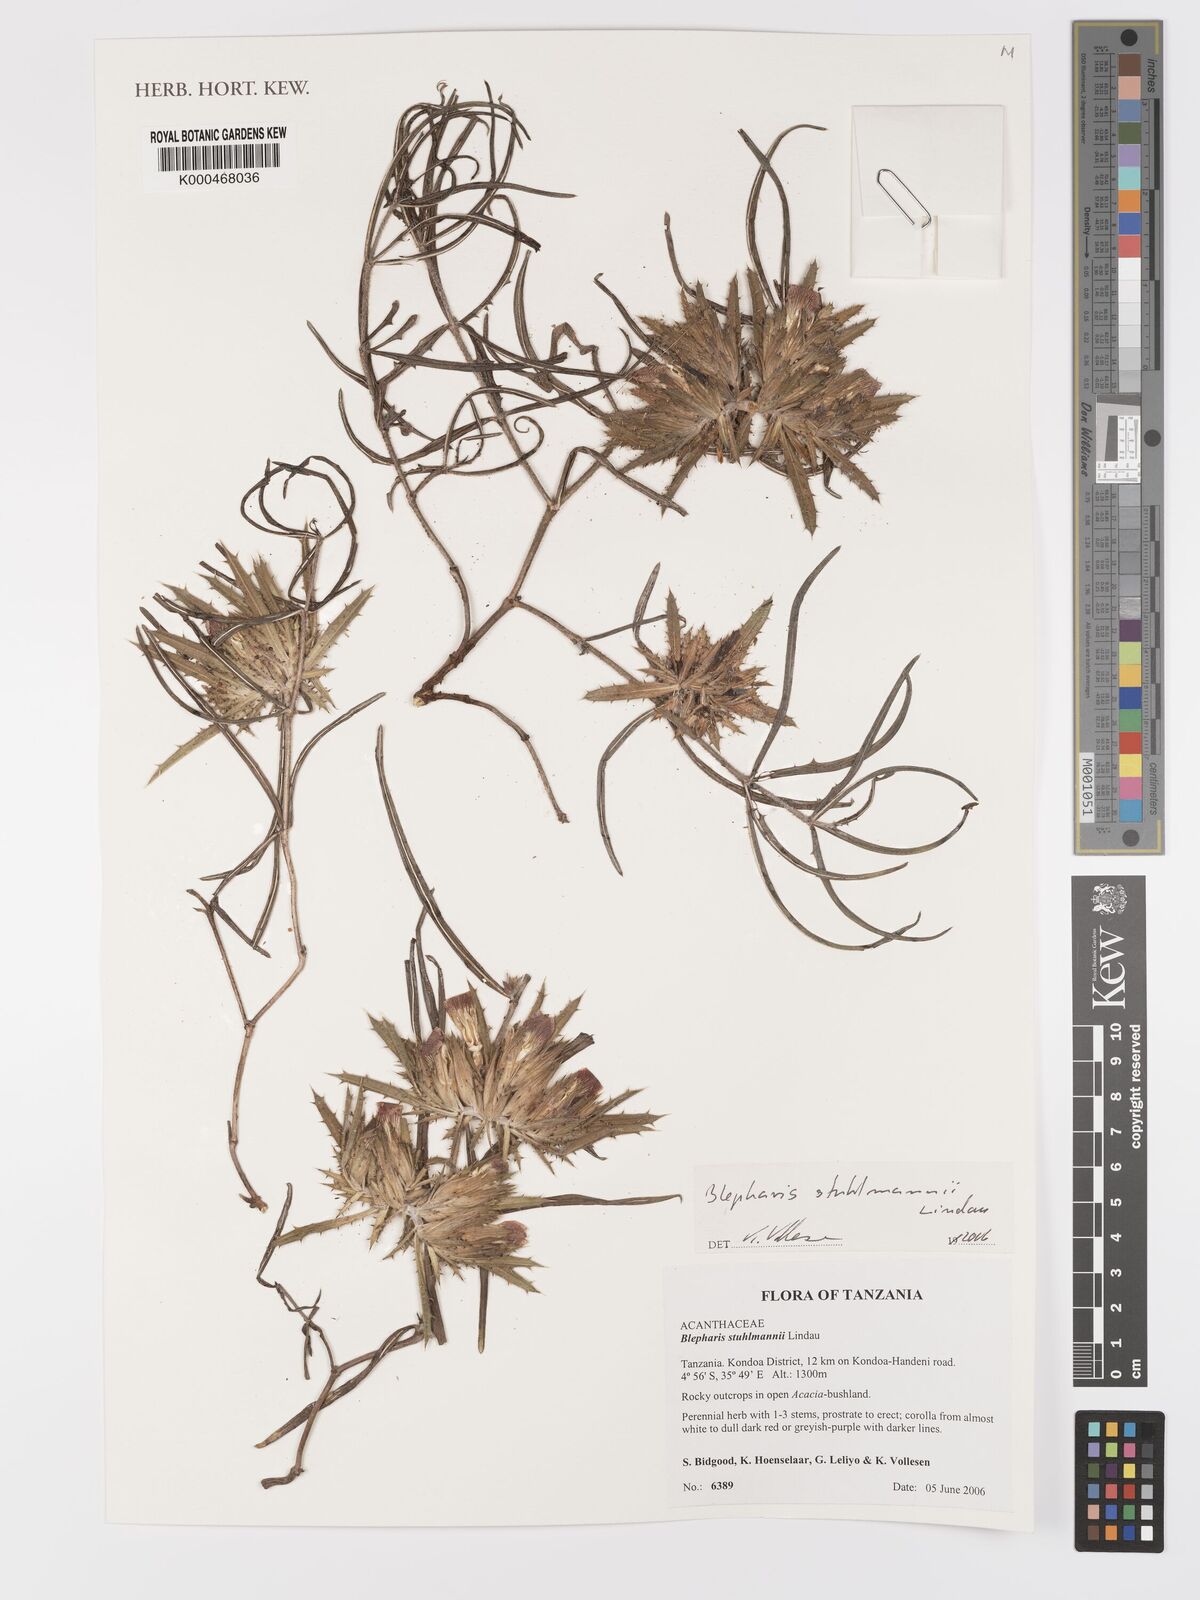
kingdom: Plantae
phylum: Tracheophyta
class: Magnoliopsida
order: Lamiales
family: Acanthaceae
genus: Blepharis
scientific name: Blepharis stuhlmannii
